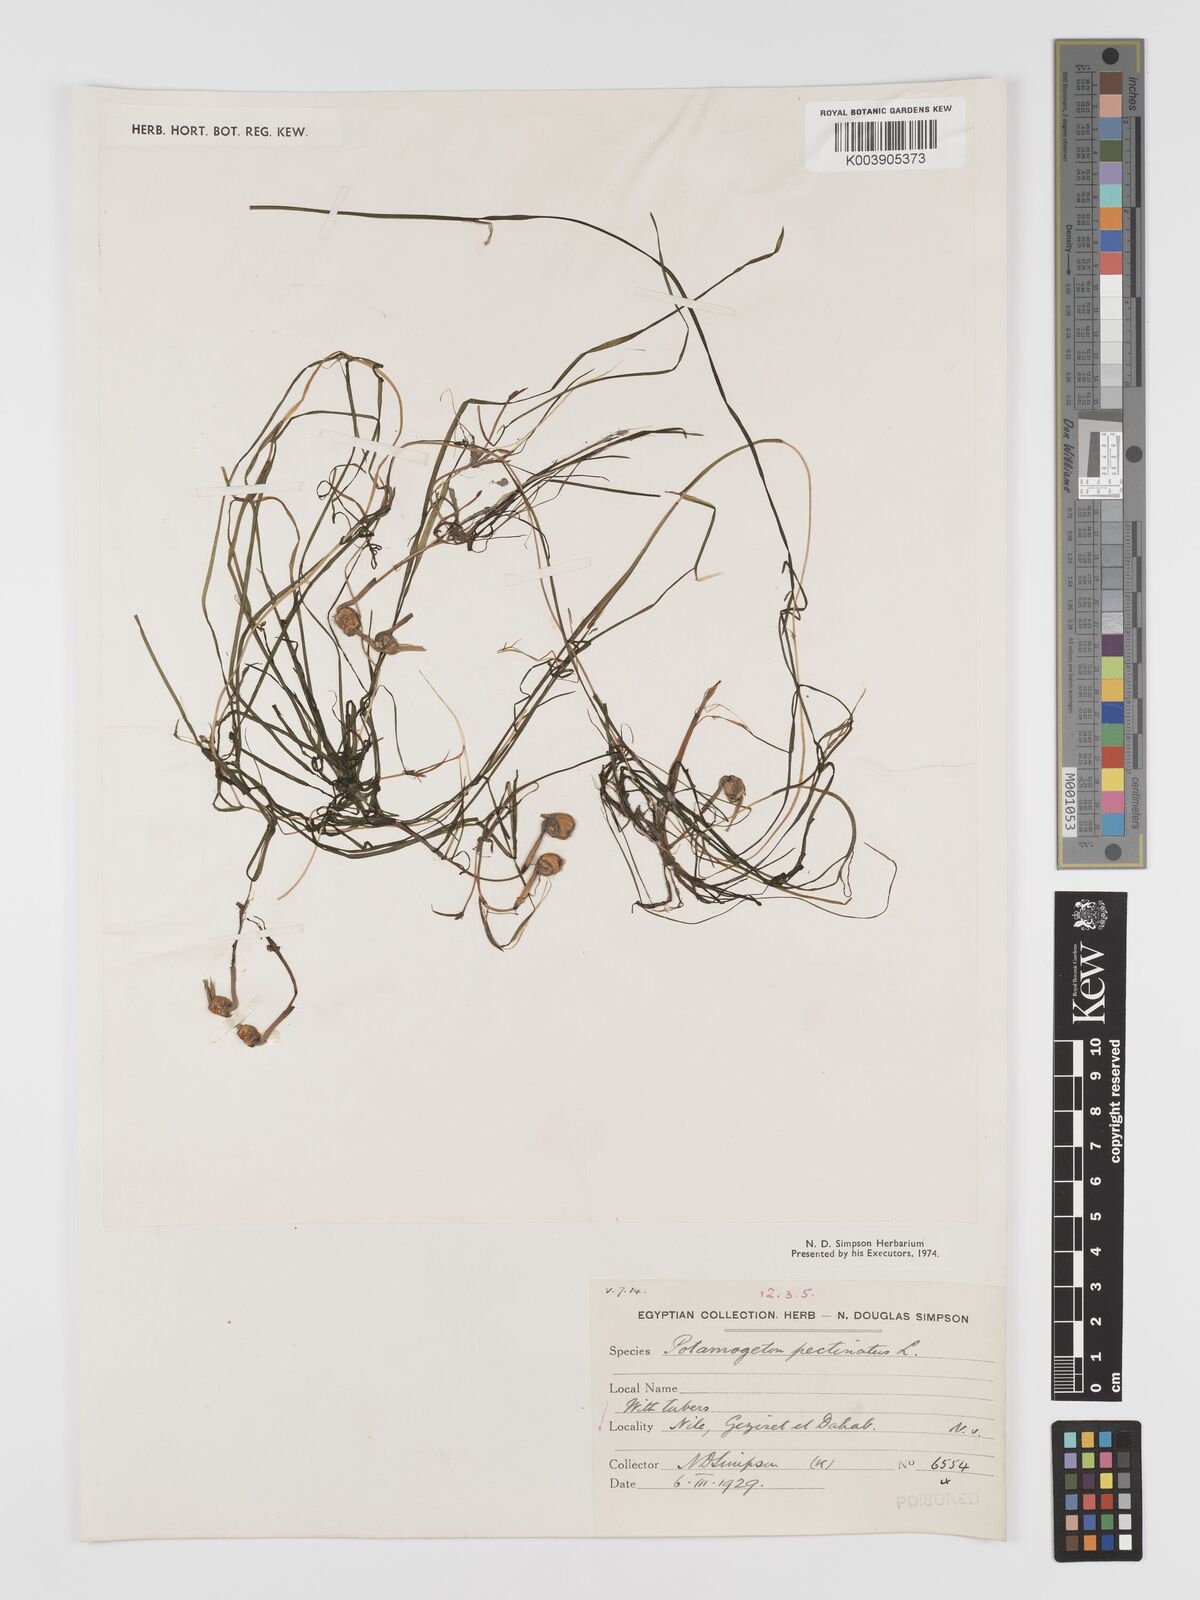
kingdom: Plantae
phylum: Tracheophyta
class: Liliopsida
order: Alismatales
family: Potamogetonaceae
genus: Stuckenia
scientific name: Stuckenia pectinata
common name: Sago pondweed
